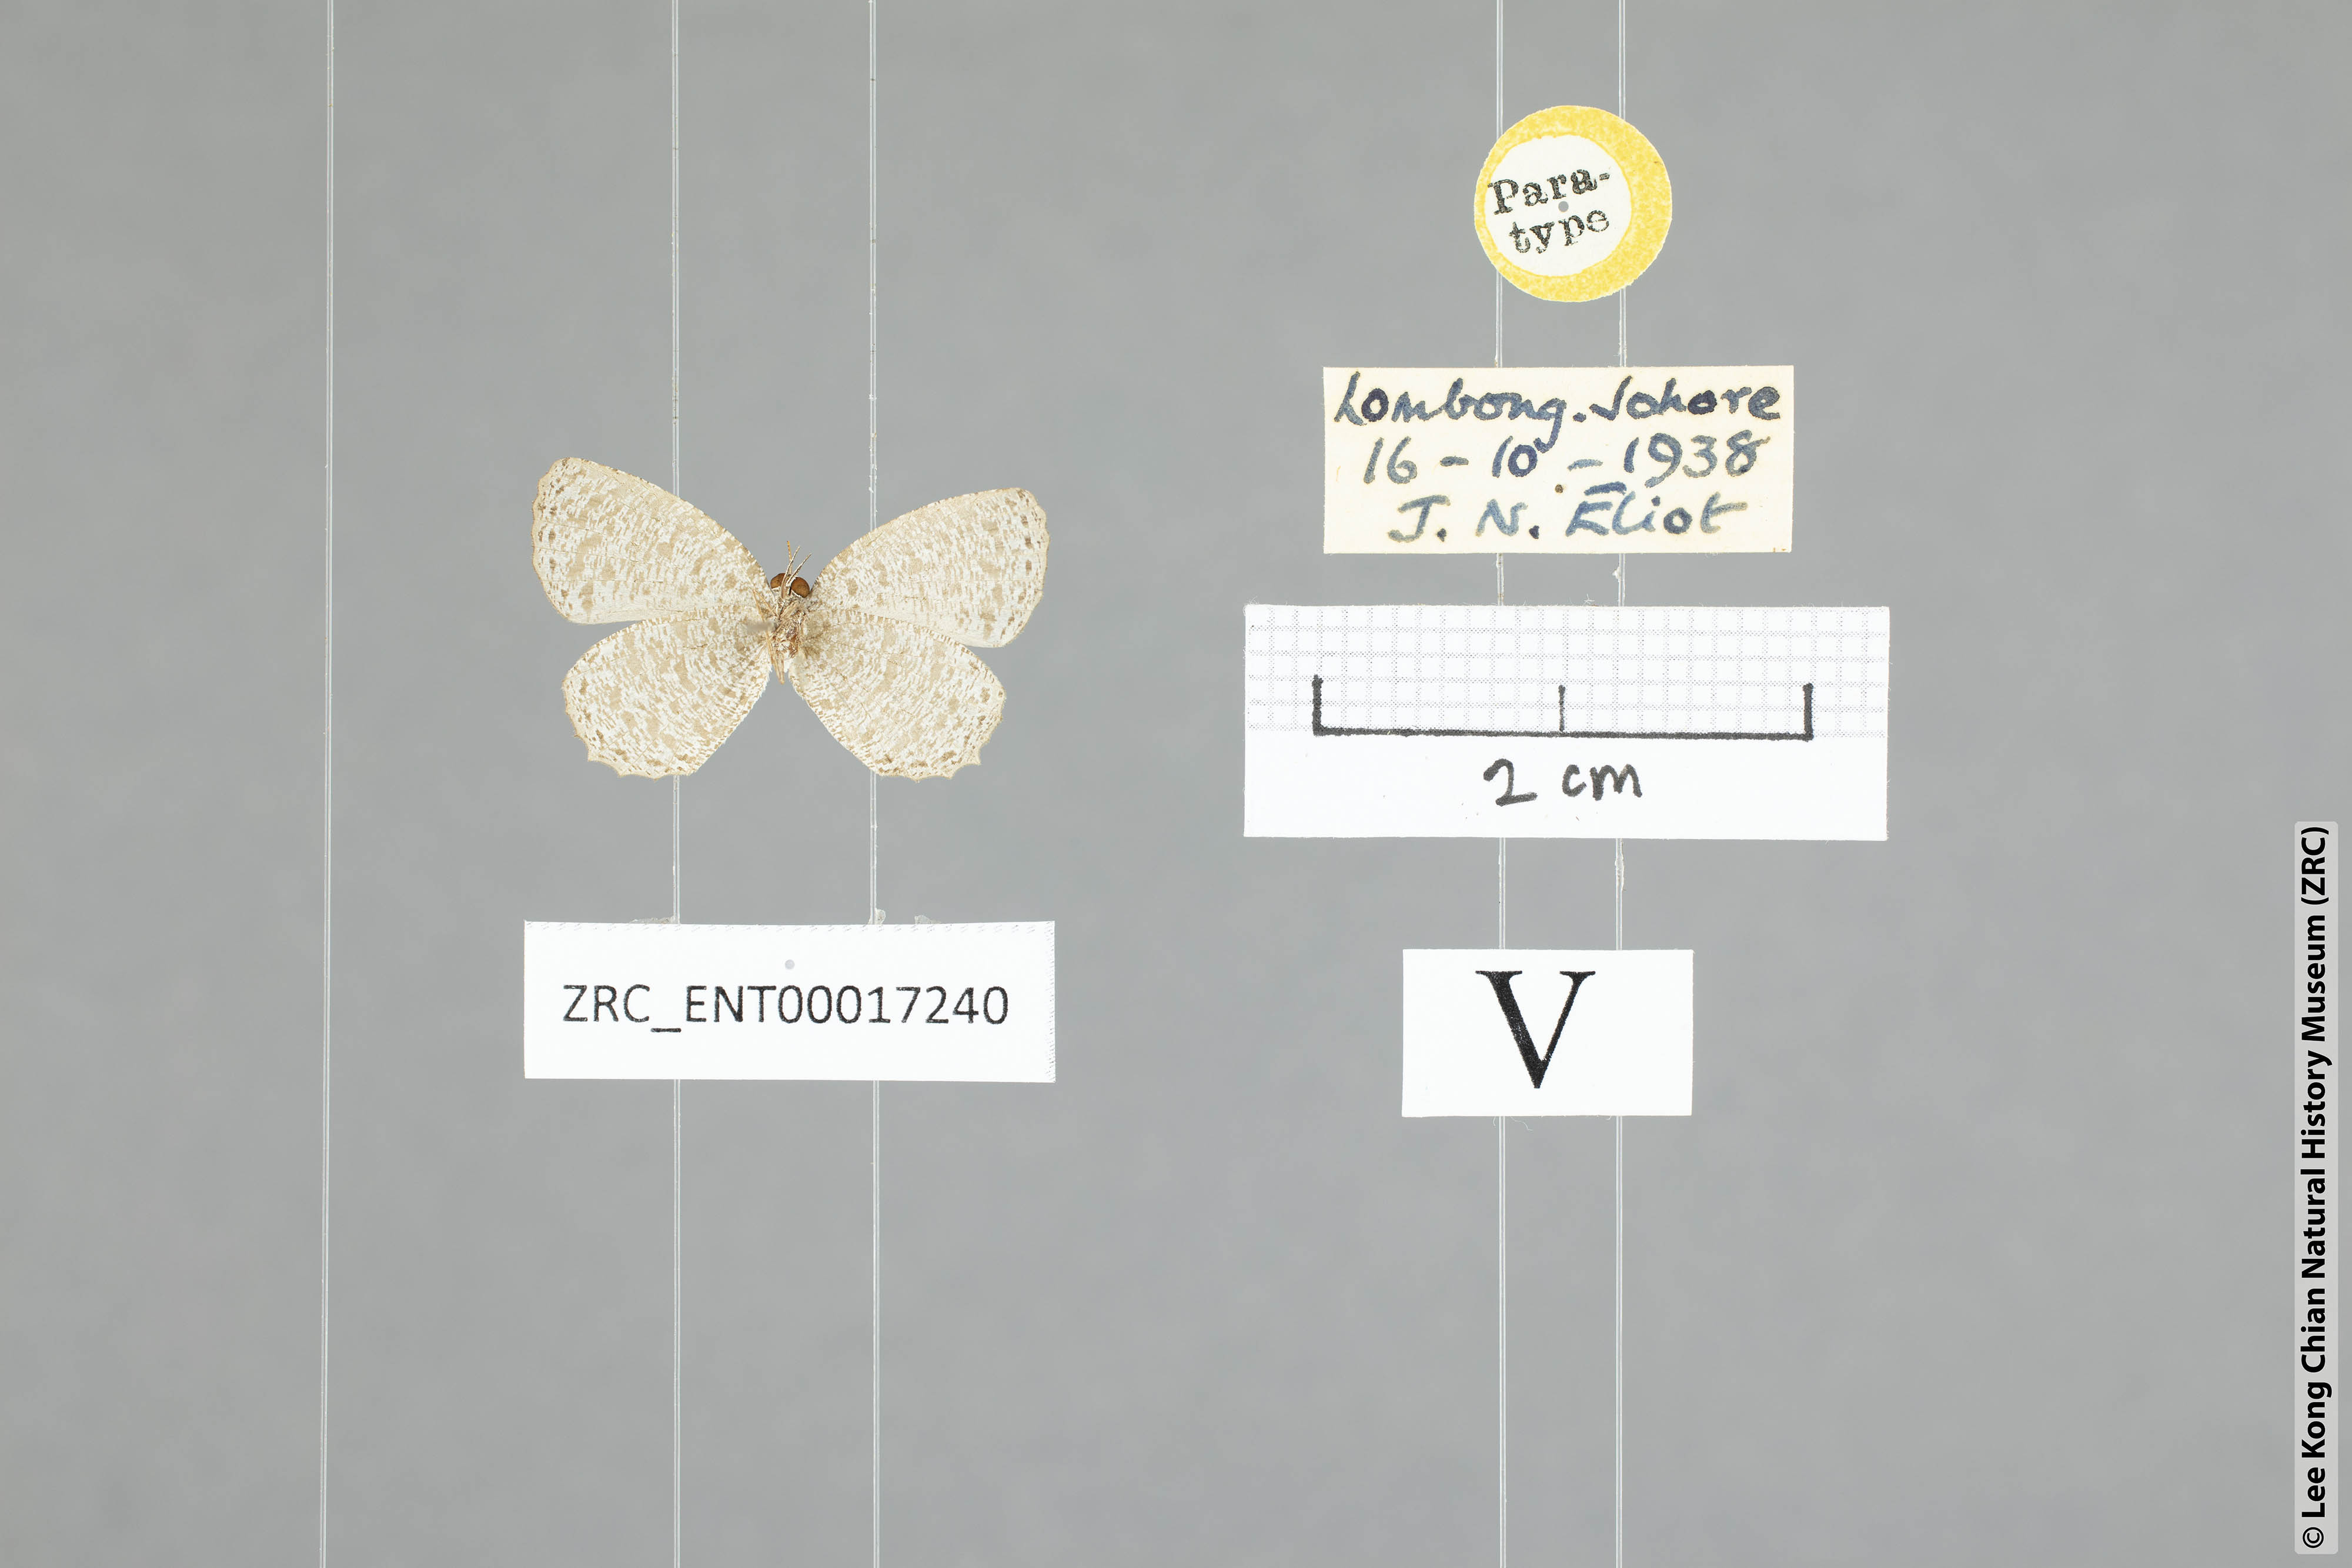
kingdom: Animalia
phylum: Arthropoda
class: Insecta
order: Lepidoptera
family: Lycaenidae
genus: Allotinus
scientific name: Allotinus felderi
